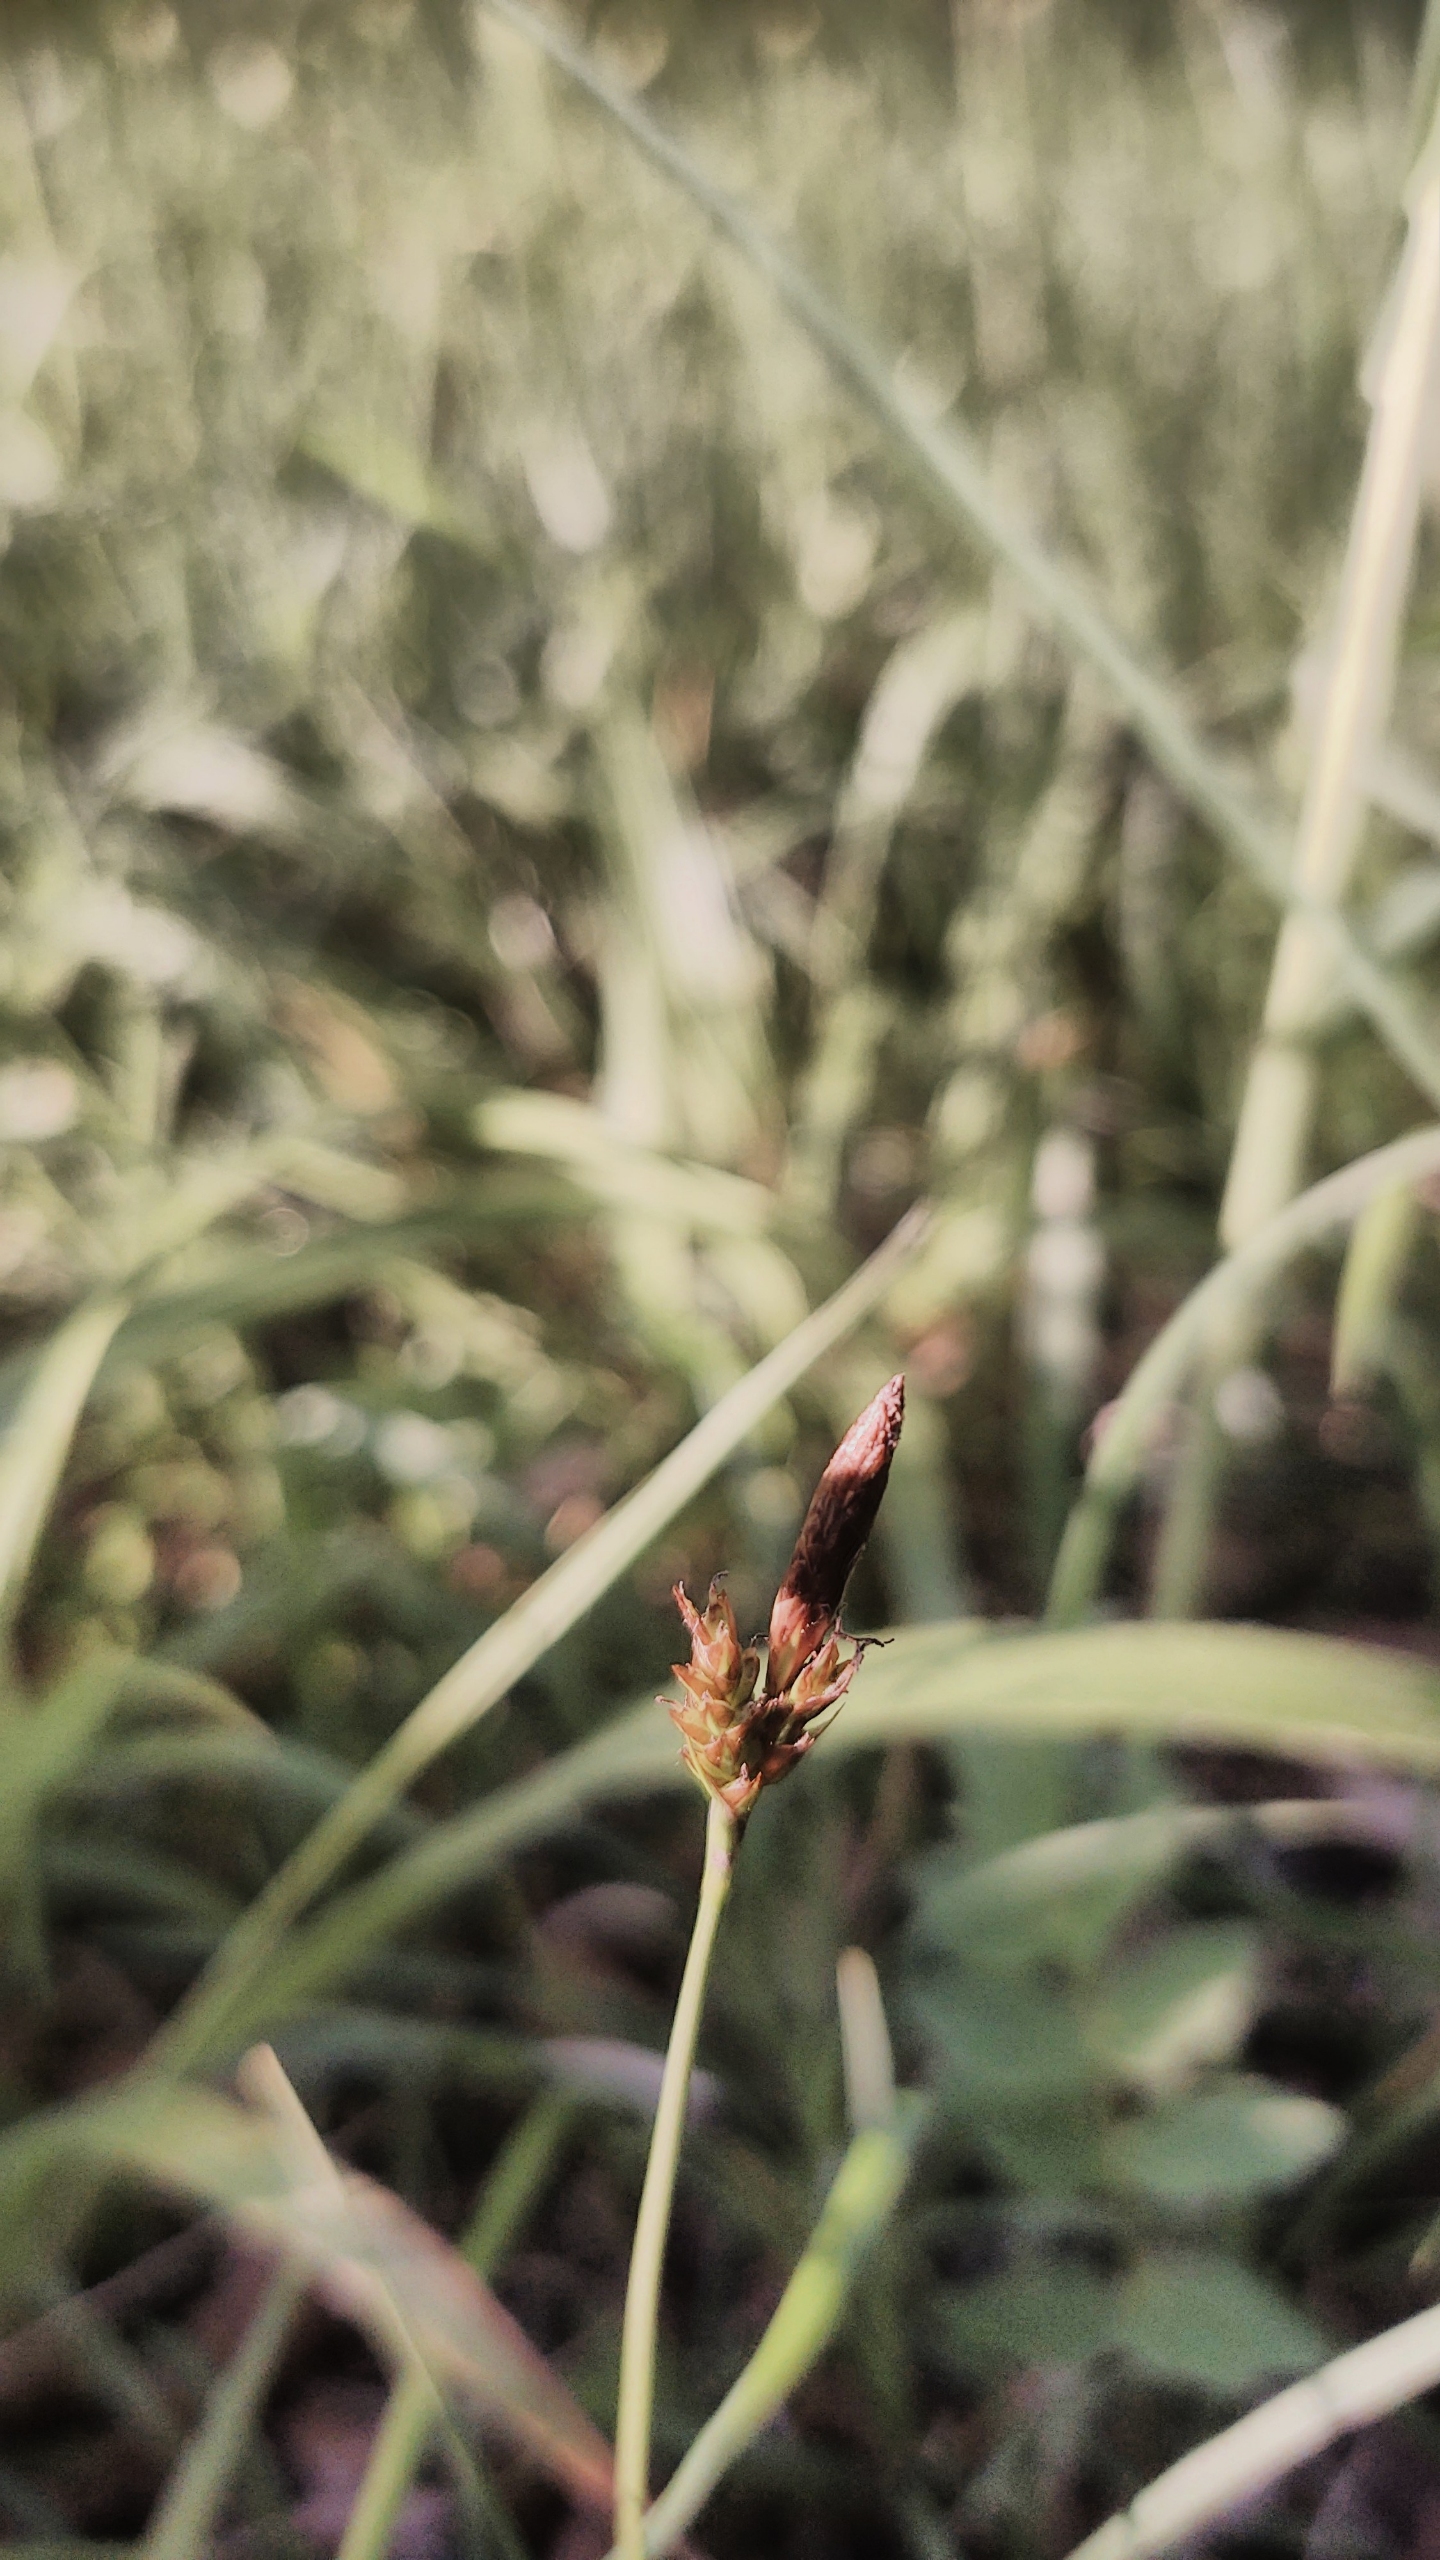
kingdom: Plantae
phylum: Tracheophyta
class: Liliopsida
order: Poales
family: Cyperaceae
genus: Carex
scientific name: Carex caryophyllea
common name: Vår-star
